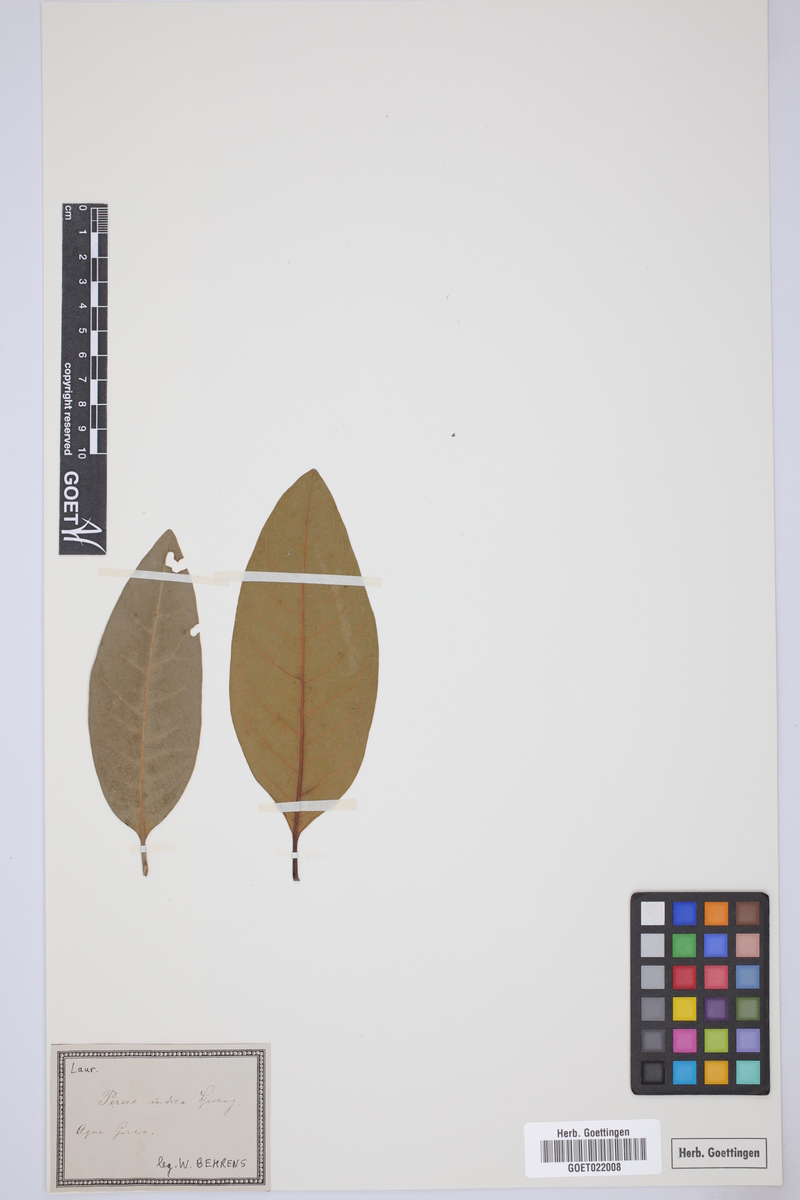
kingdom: Plantae
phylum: Tracheophyta
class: Magnoliopsida
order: Laurales
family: Lauraceae
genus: Persea
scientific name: Persea indica
